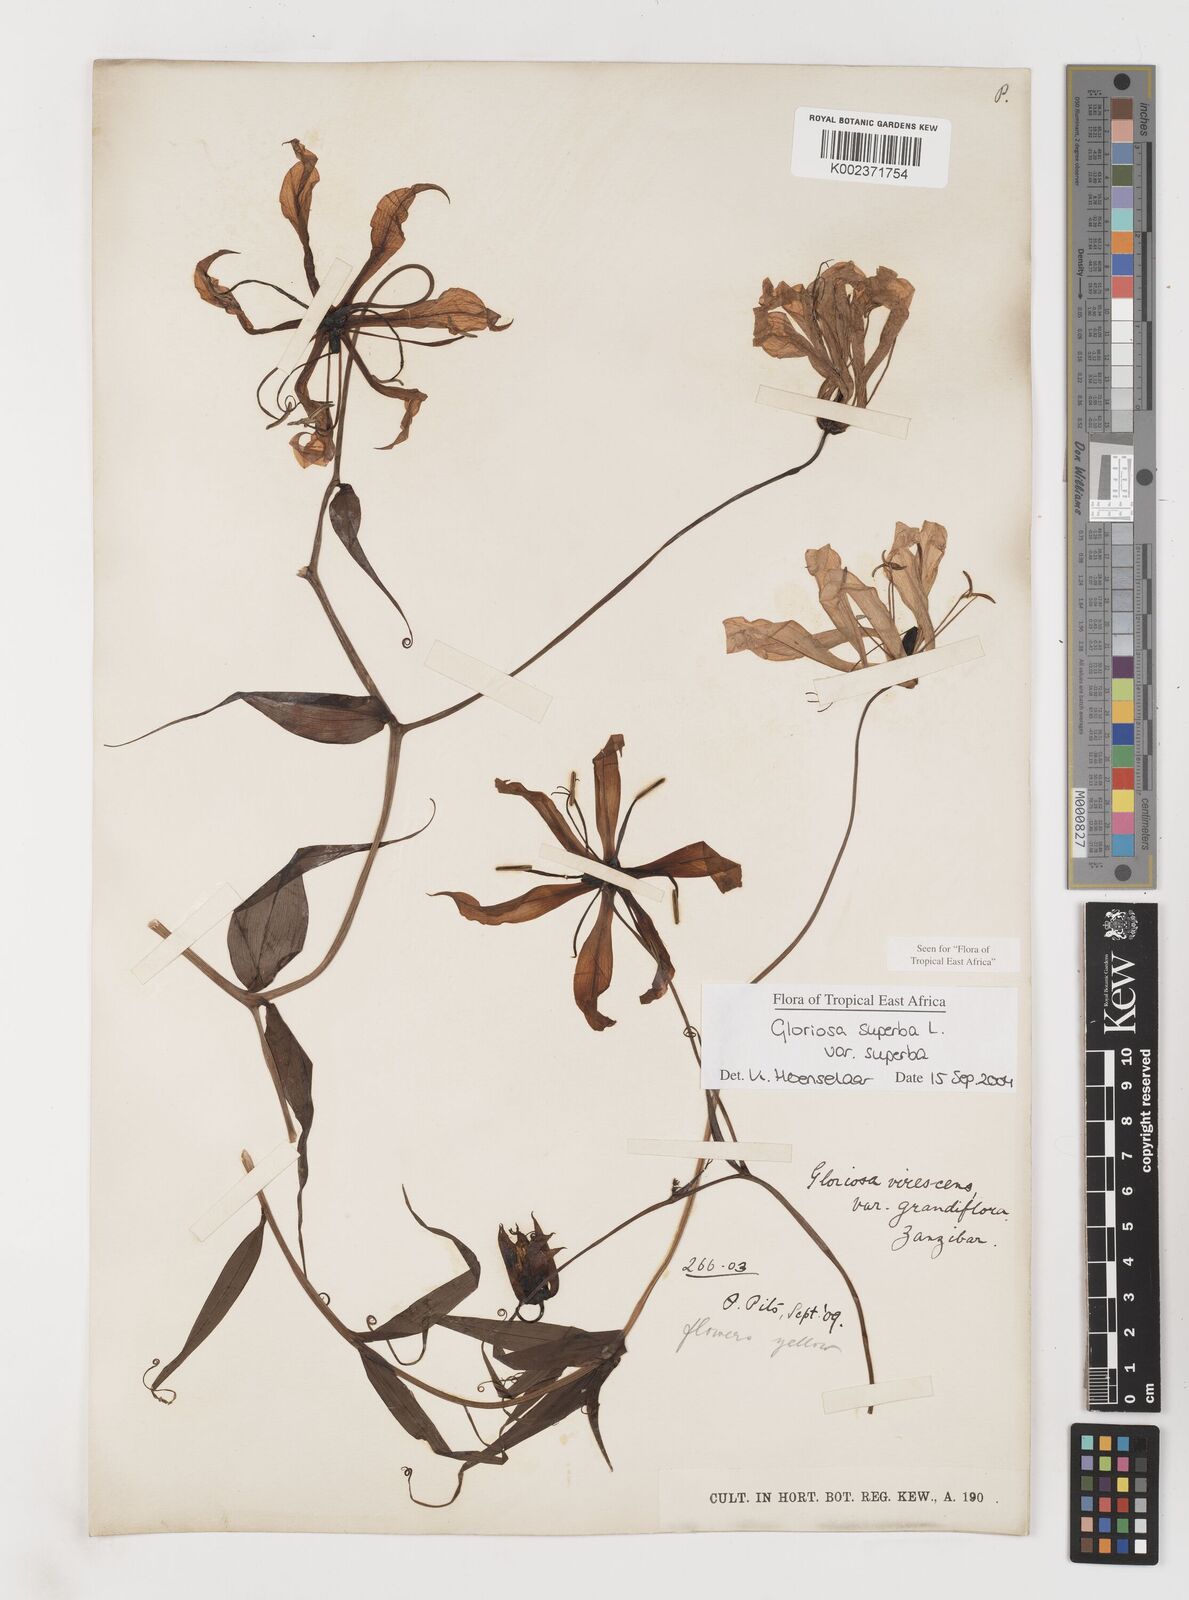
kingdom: Plantae
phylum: Tracheophyta
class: Liliopsida
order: Liliales
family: Colchicaceae
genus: Gloriosa
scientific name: Gloriosa simplex
